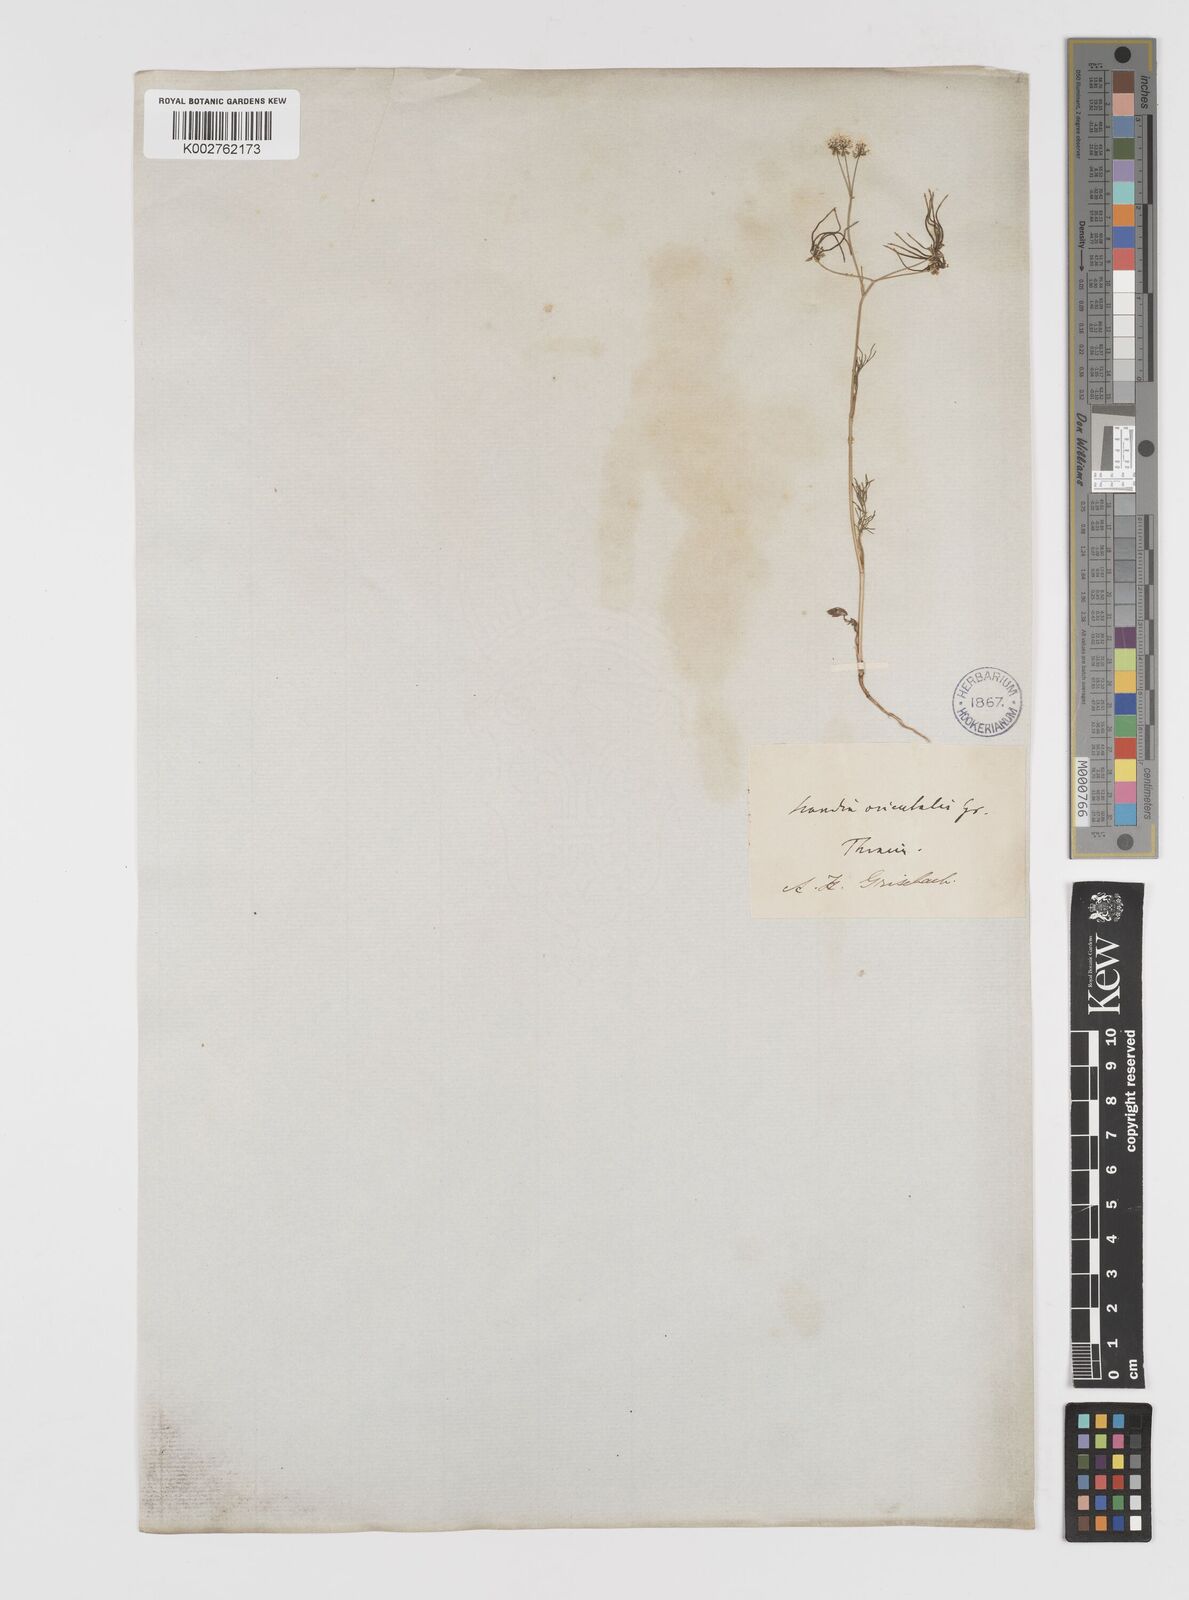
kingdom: Plantae
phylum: Tracheophyta
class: Magnoliopsida
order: Apiales
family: Apiaceae
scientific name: Apiaceae
